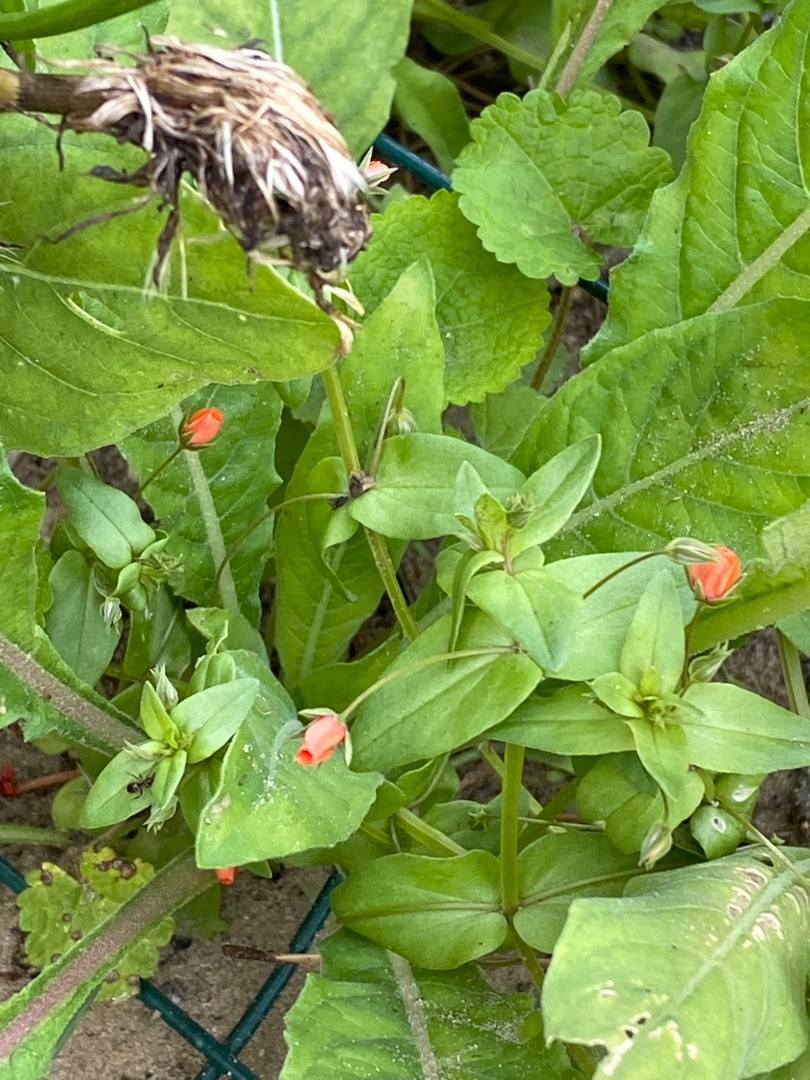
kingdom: Plantae
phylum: Tracheophyta
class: Magnoliopsida
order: Ericales
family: Primulaceae
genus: Lysimachia
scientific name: Lysimachia arvensis
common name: Rød arve
